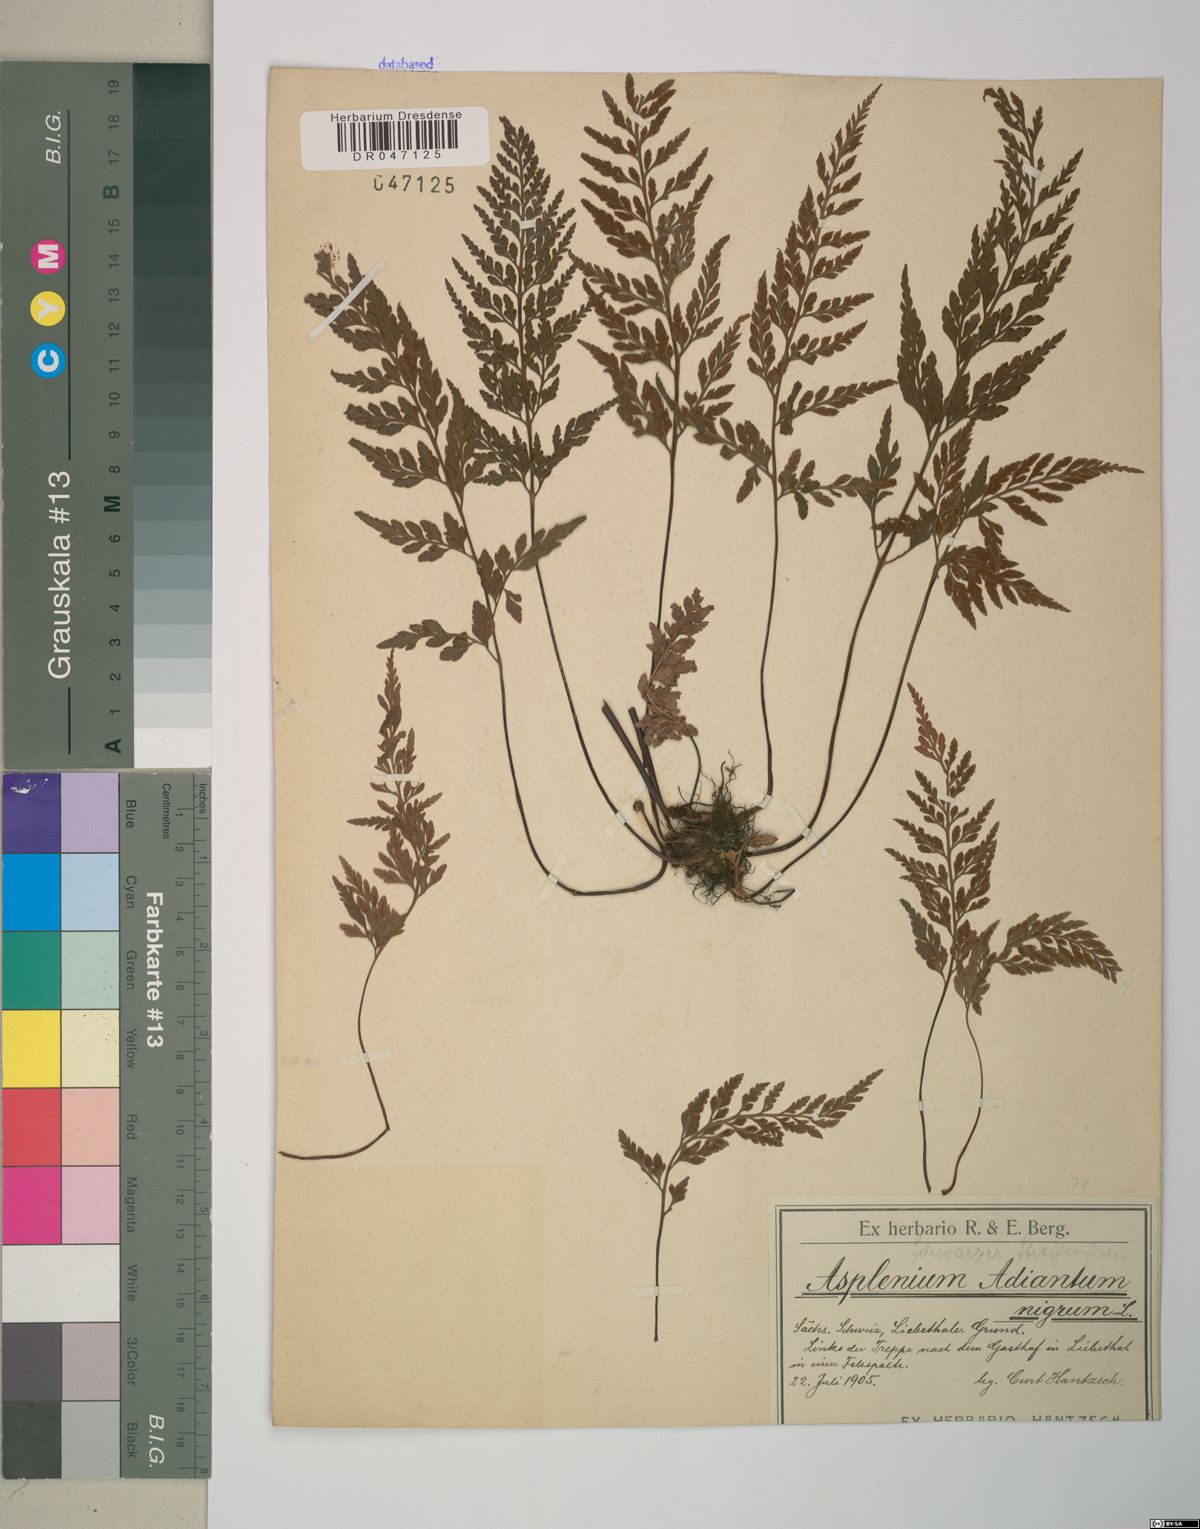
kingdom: Plantae
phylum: Tracheophyta
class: Polypodiopsida
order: Polypodiales
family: Aspleniaceae
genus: Asplenium
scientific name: Asplenium adiantum-nigrum
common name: Black spleenwort
